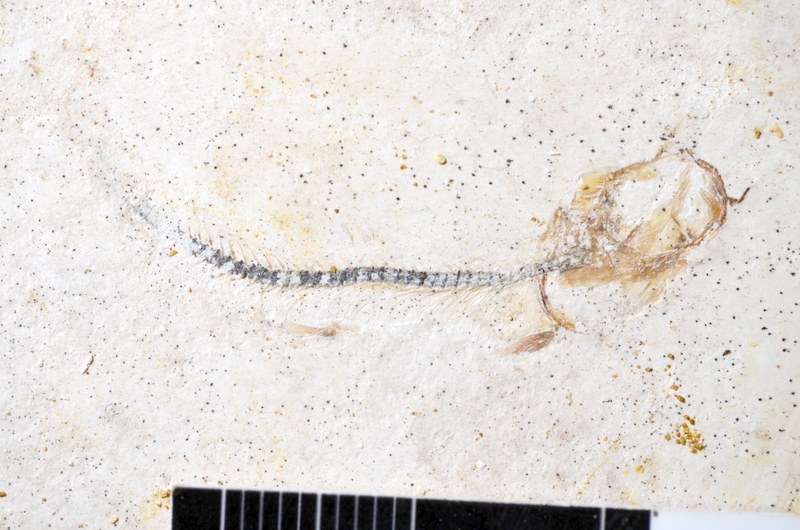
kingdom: Animalia
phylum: Chordata
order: Salmoniformes
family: Orthogonikleithridae
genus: Orthogonikleithrus
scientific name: Orthogonikleithrus hoelli
